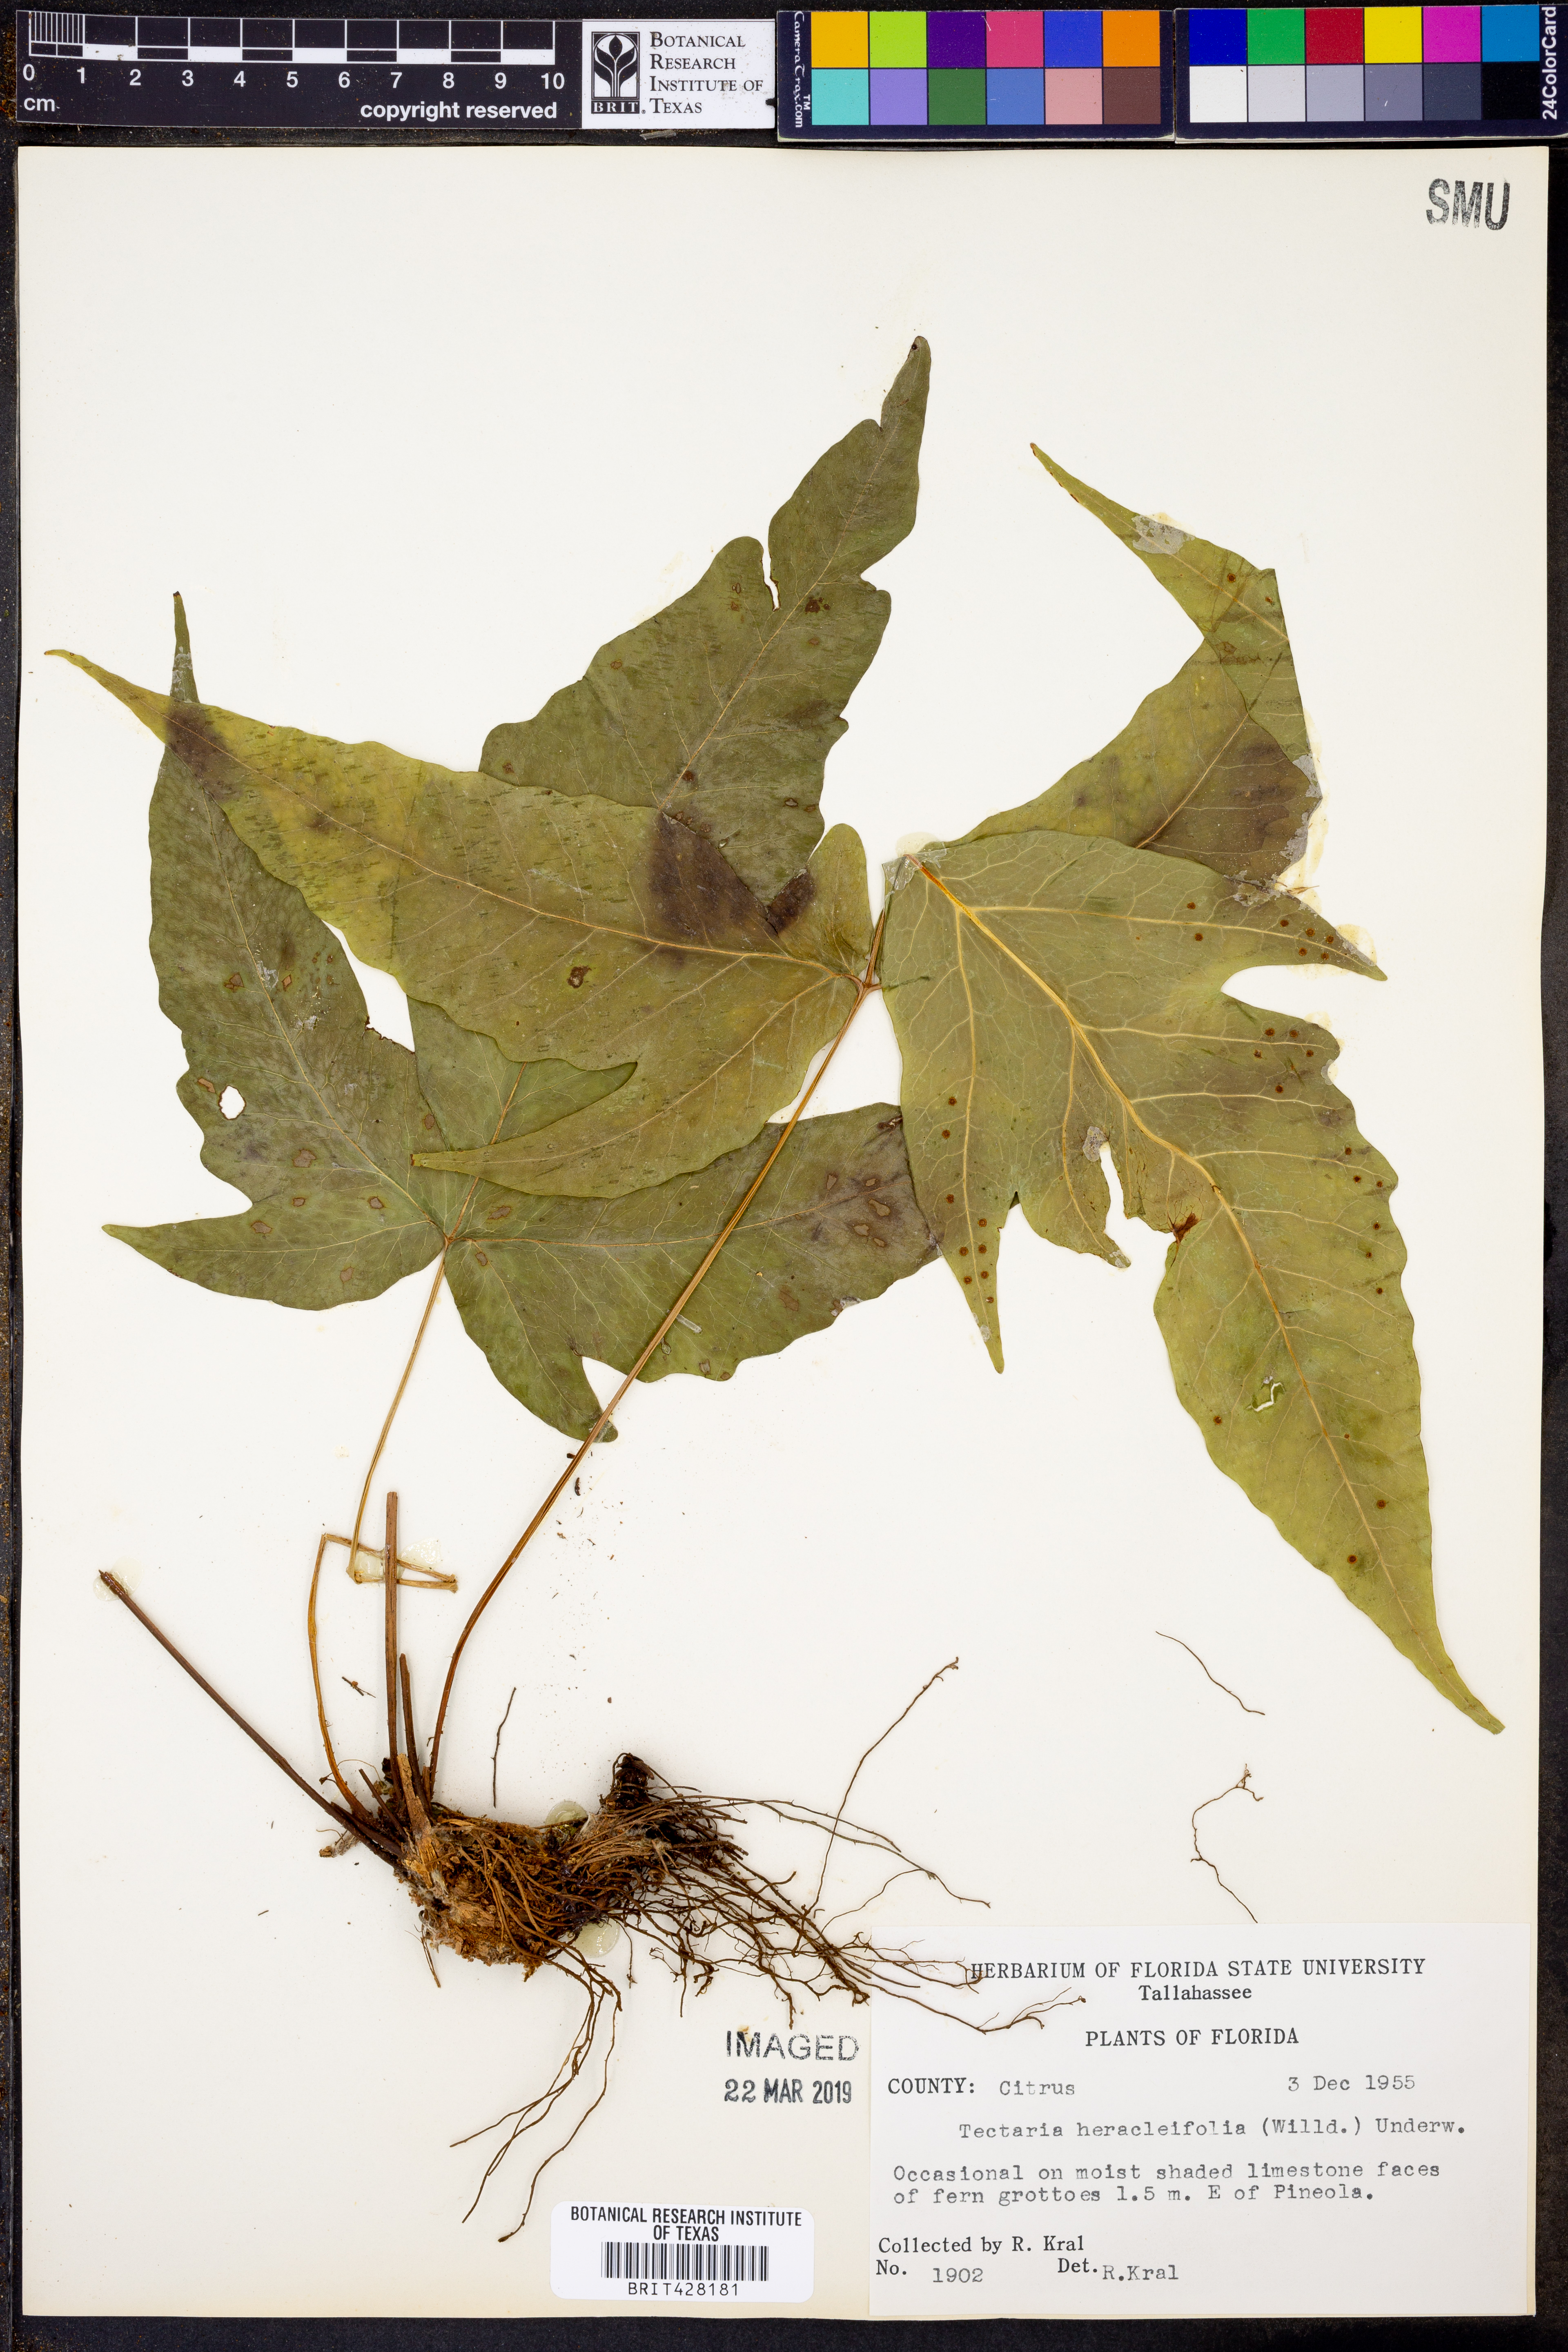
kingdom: Plantae
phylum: Tracheophyta
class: Polypodiopsida
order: Polypodiales
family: Tectariaceae
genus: Tectaria
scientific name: Tectaria heracleifolia
